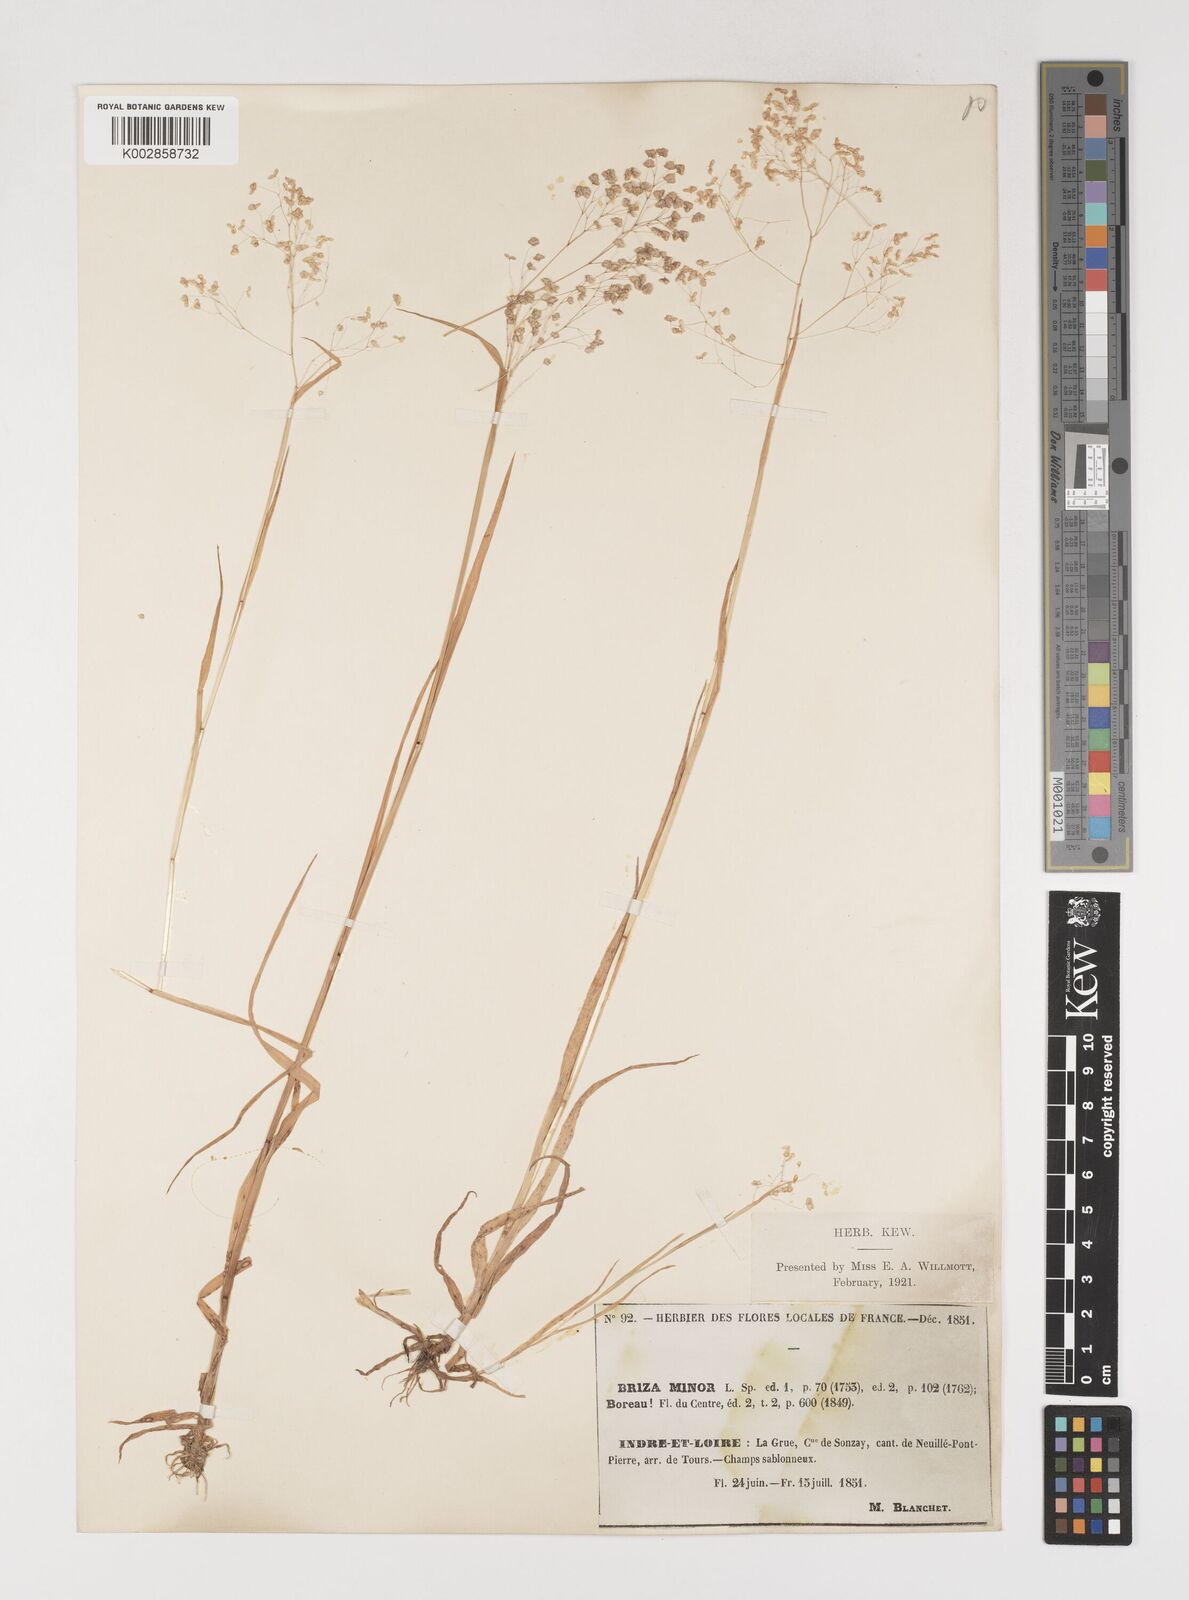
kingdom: Plantae
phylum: Tracheophyta
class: Liliopsida
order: Poales
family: Poaceae
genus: Briza
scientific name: Briza minor
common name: Lesser quaking-grass
